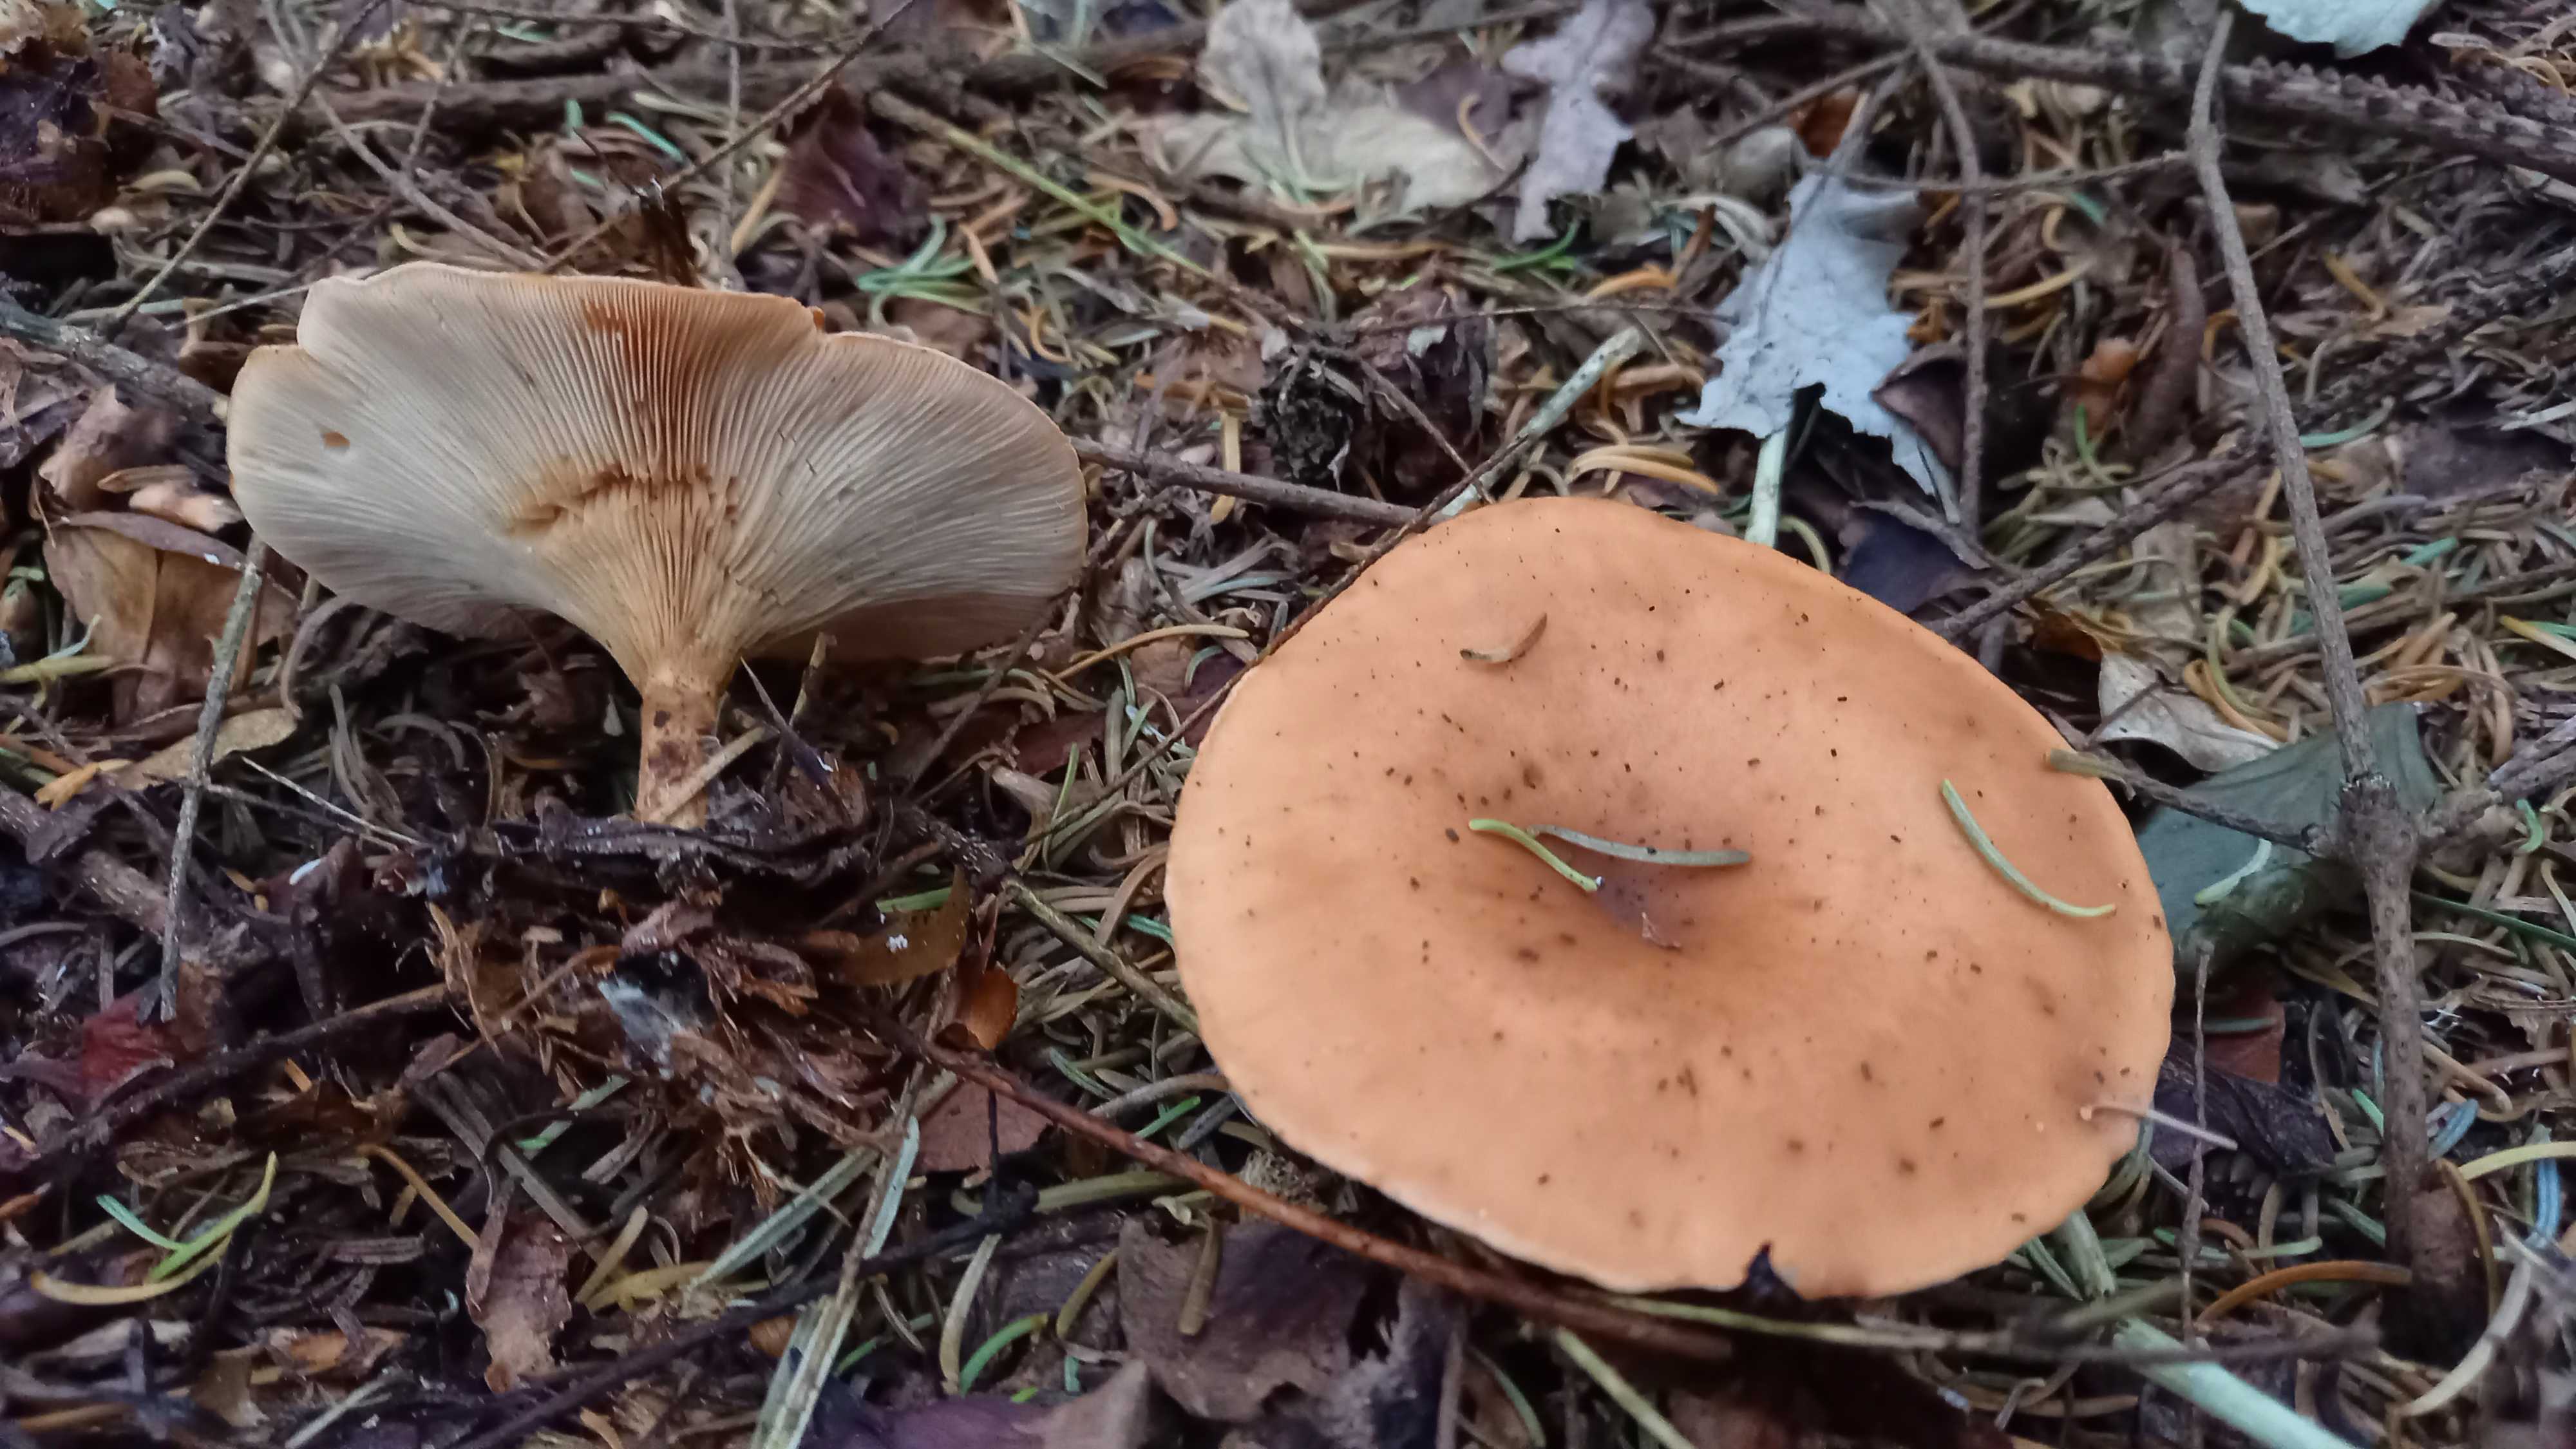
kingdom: Fungi
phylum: Basidiomycota
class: Agaricomycetes
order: Agaricales
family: Tricholomataceae
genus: Paralepista
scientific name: Paralepista flaccida
